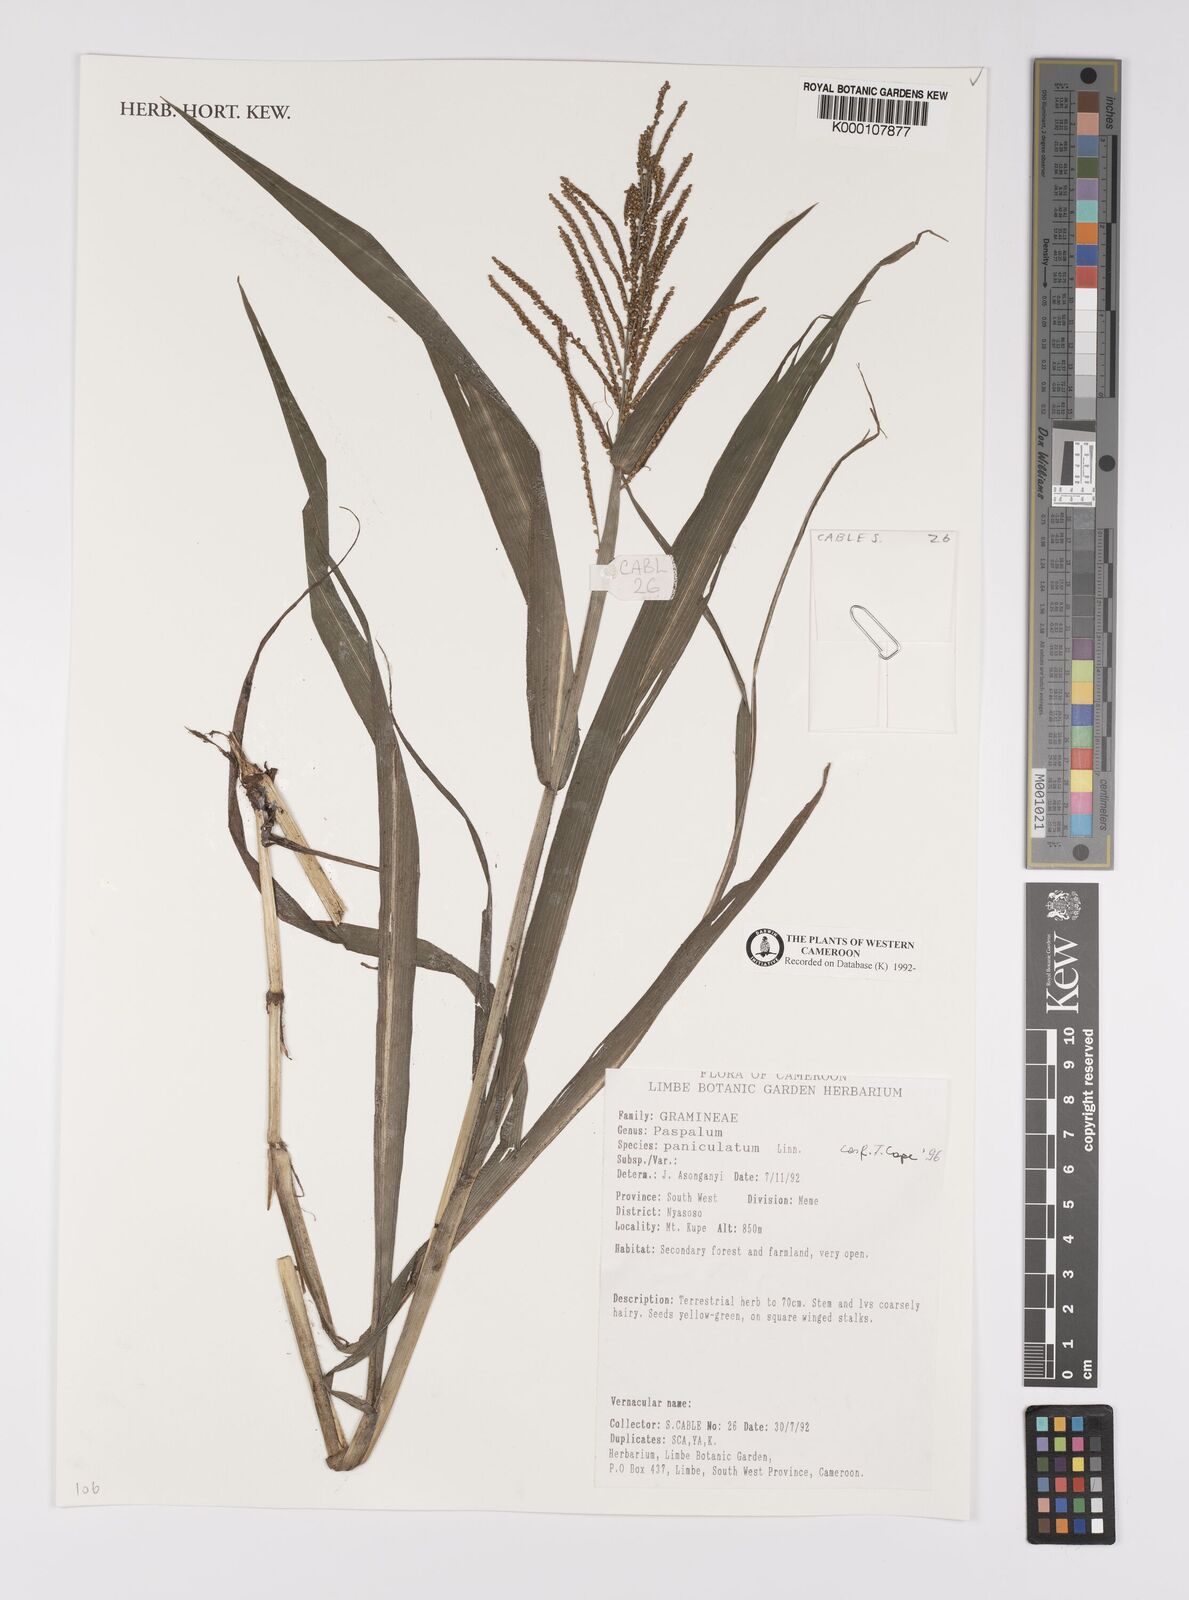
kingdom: Plantae
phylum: Tracheophyta
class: Liliopsida
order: Poales
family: Poaceae
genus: Paspalum
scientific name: Paspalum paniculatum
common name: Arrocillo
